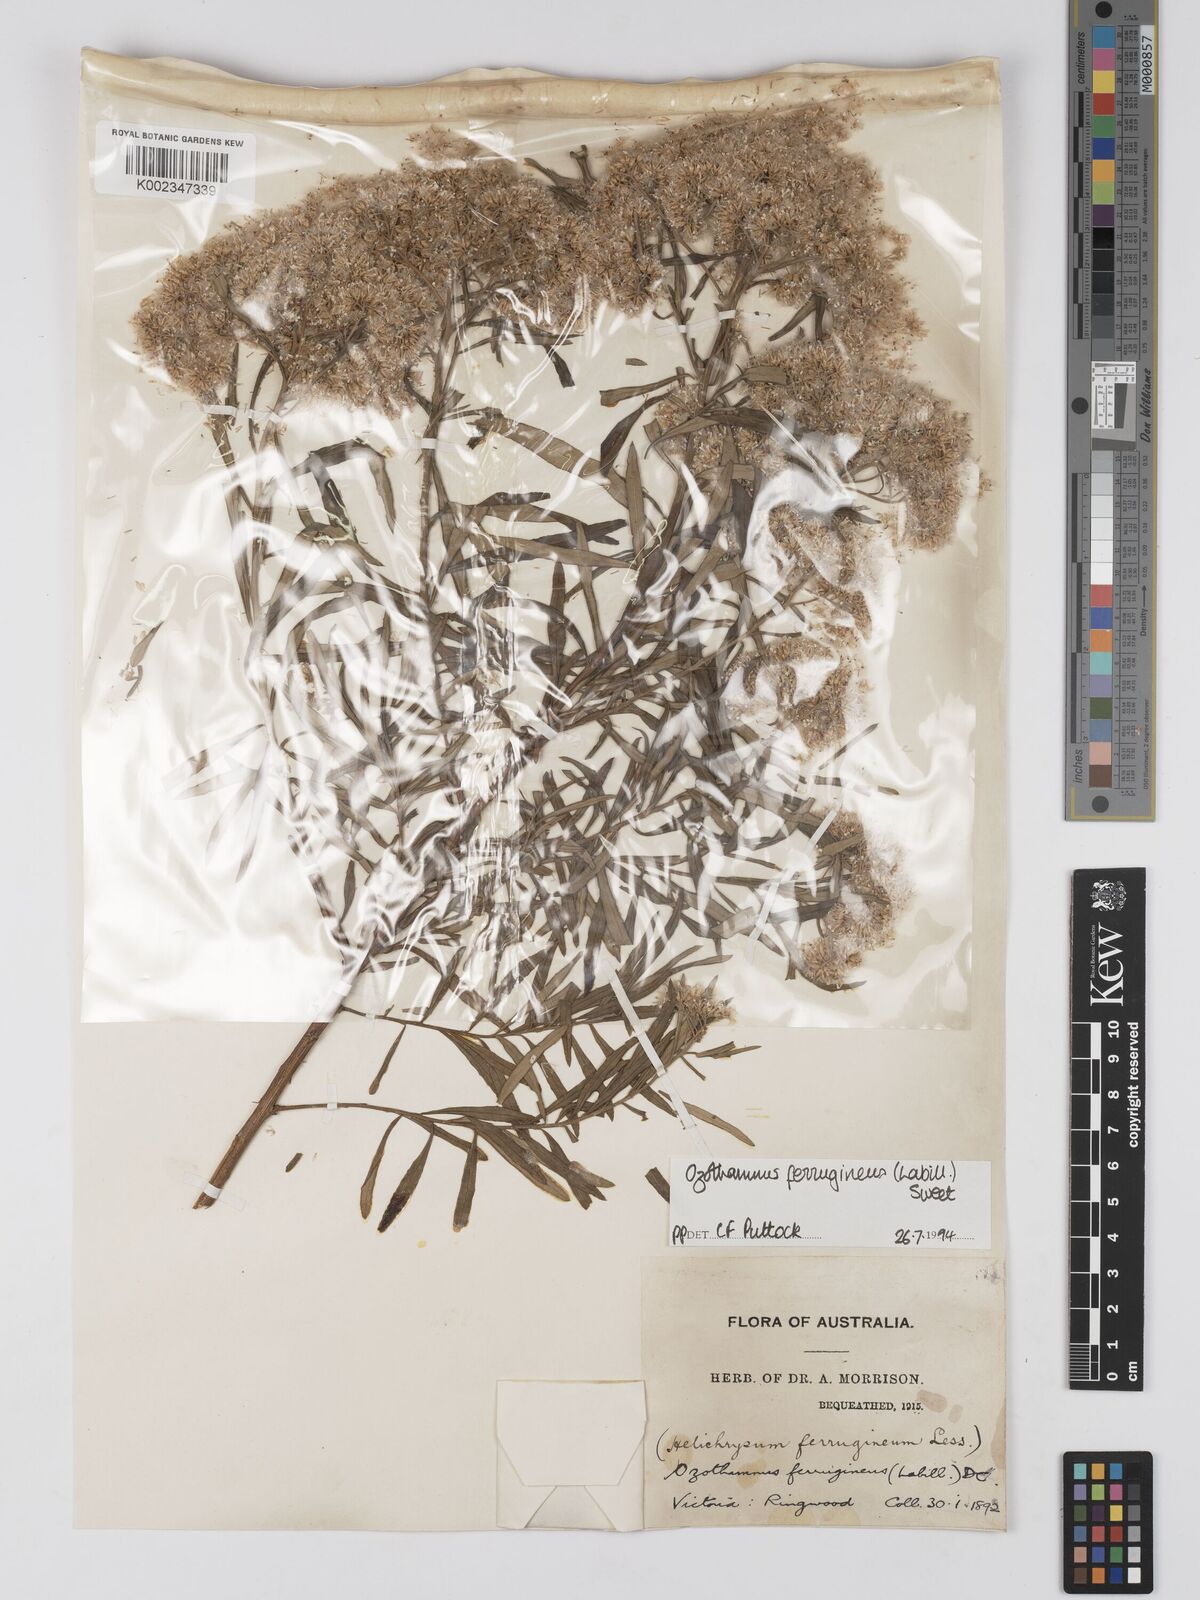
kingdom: Plantae
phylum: Tracheophyta
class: Magnoliopsida
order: Asterales
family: Asteraceae
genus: Ozothamnus
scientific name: Ozothamnus
